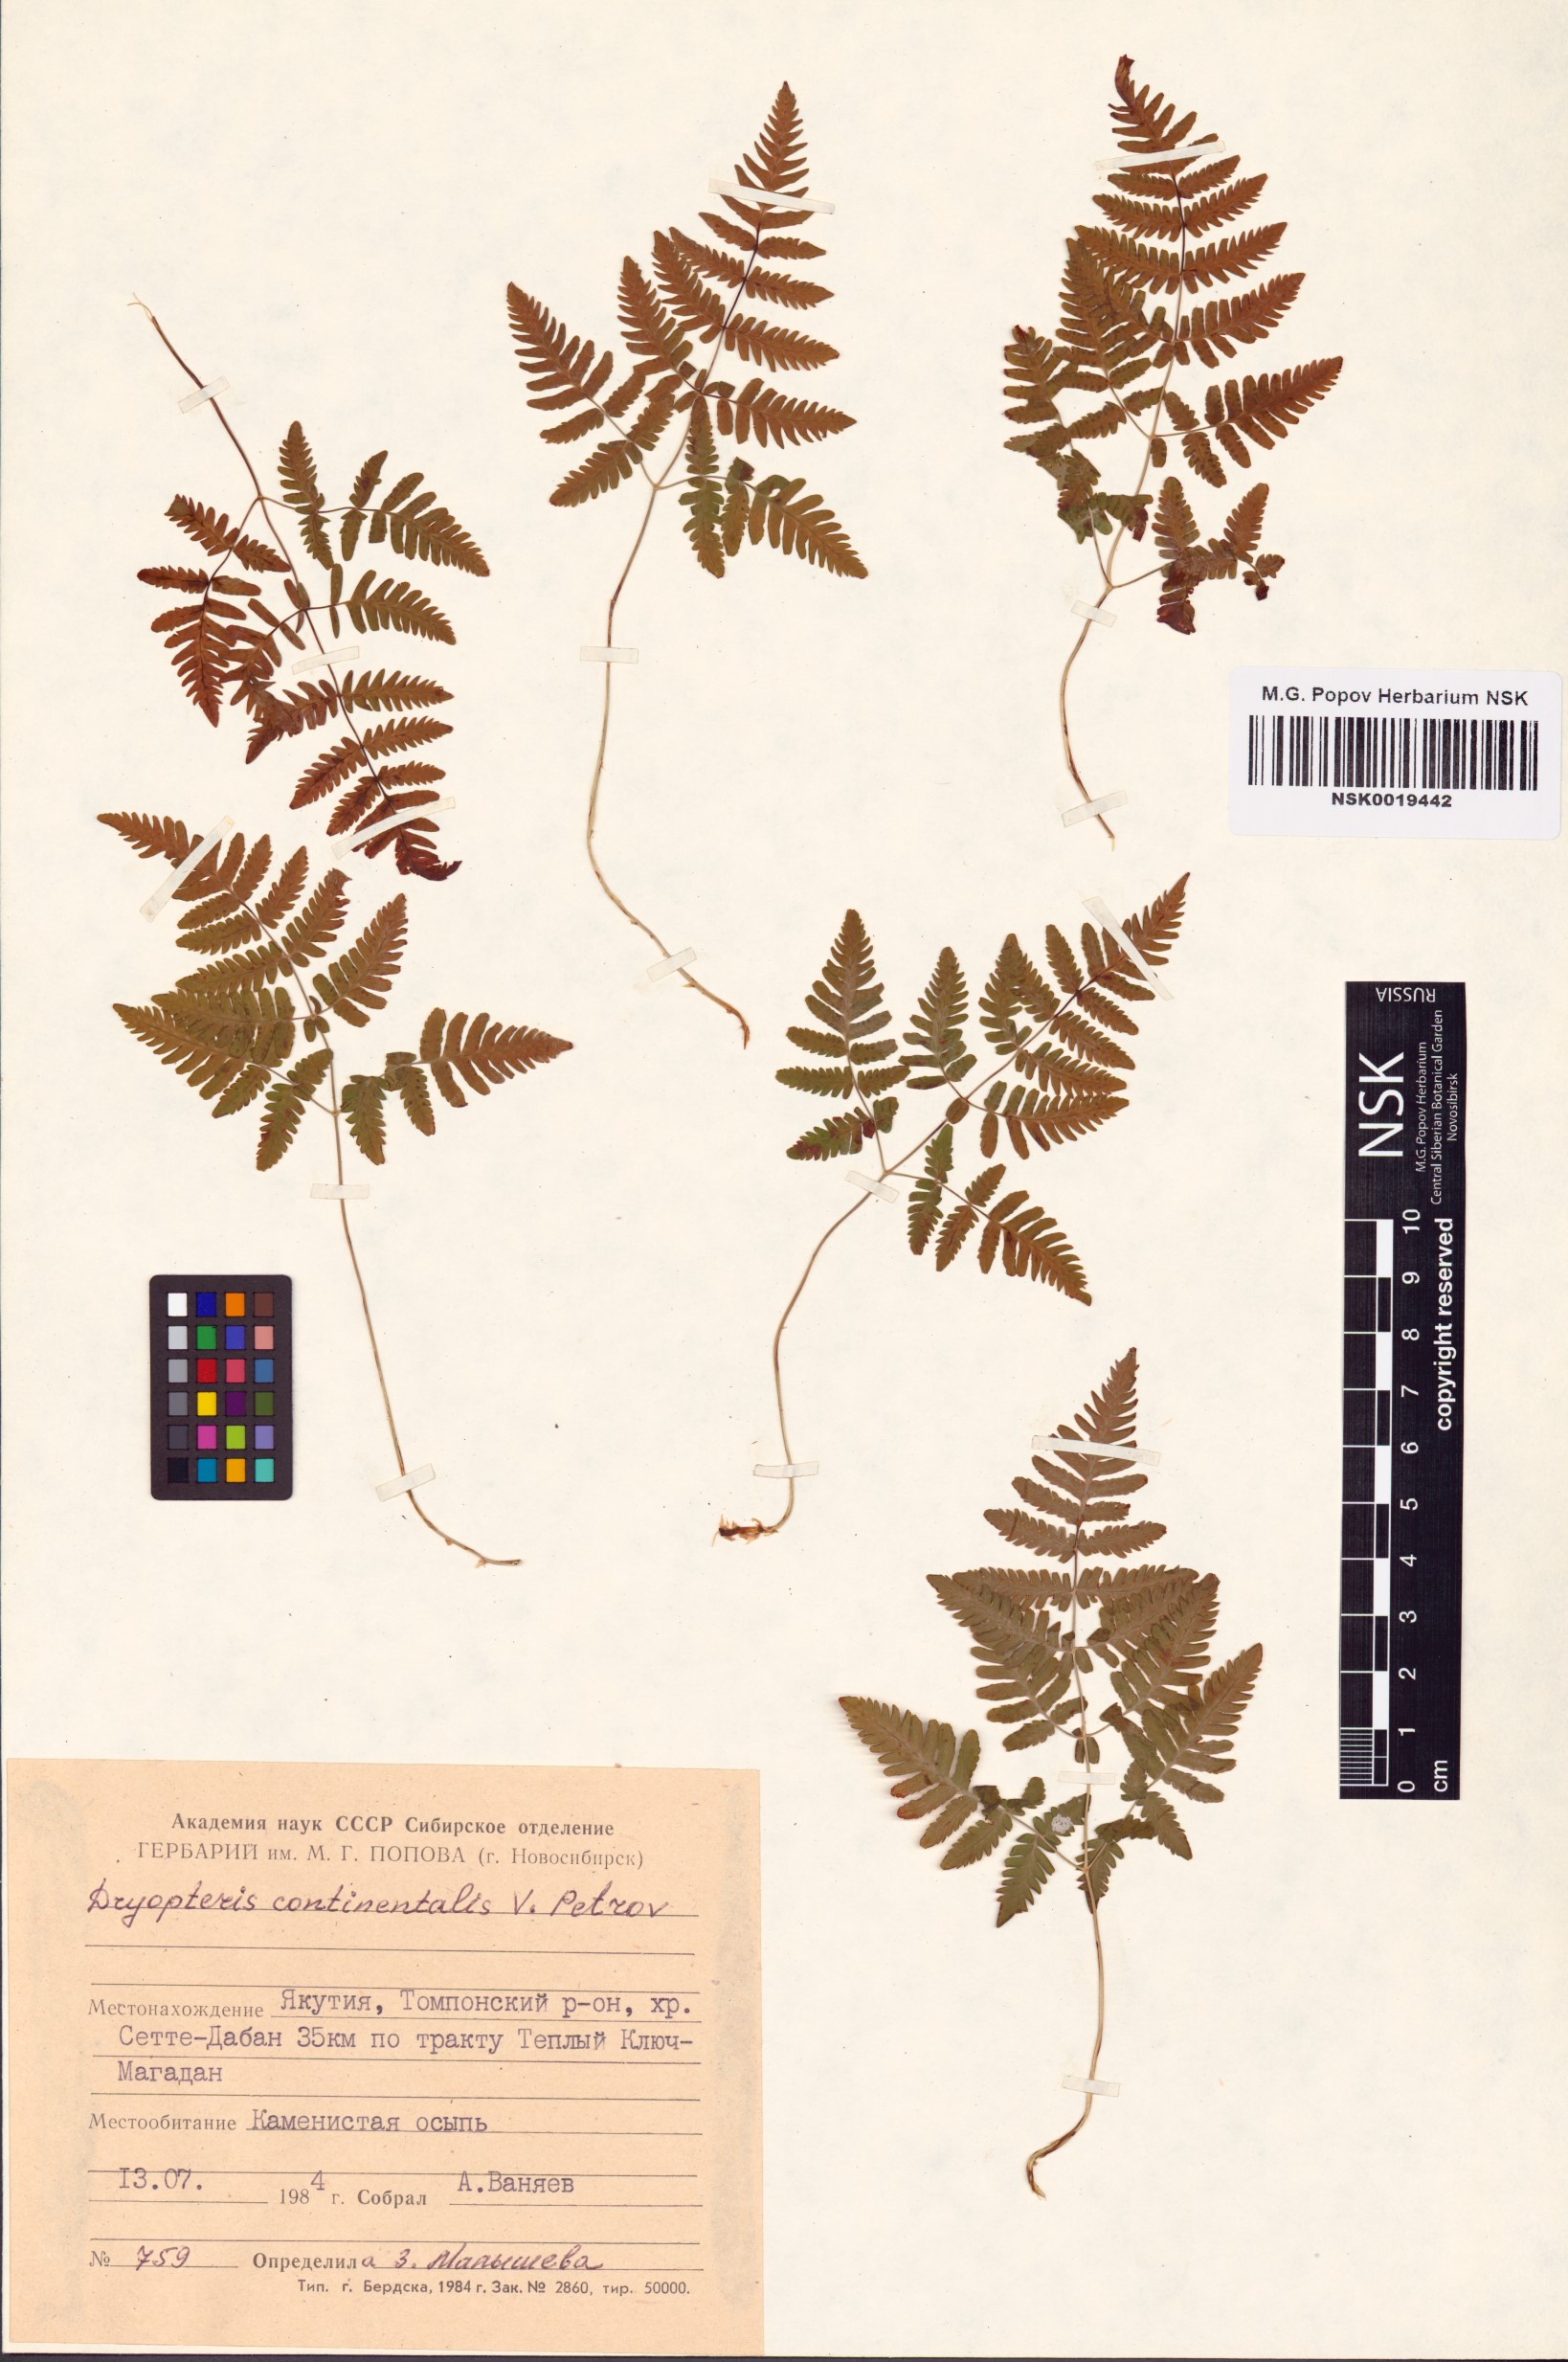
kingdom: Plantae
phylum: Tracheophyta
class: Polypodiopsida
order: Polypodiales
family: Cystopteridaceae
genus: Gymnocarpium
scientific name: Gymnocarpium continentale
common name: Asian oak fern
